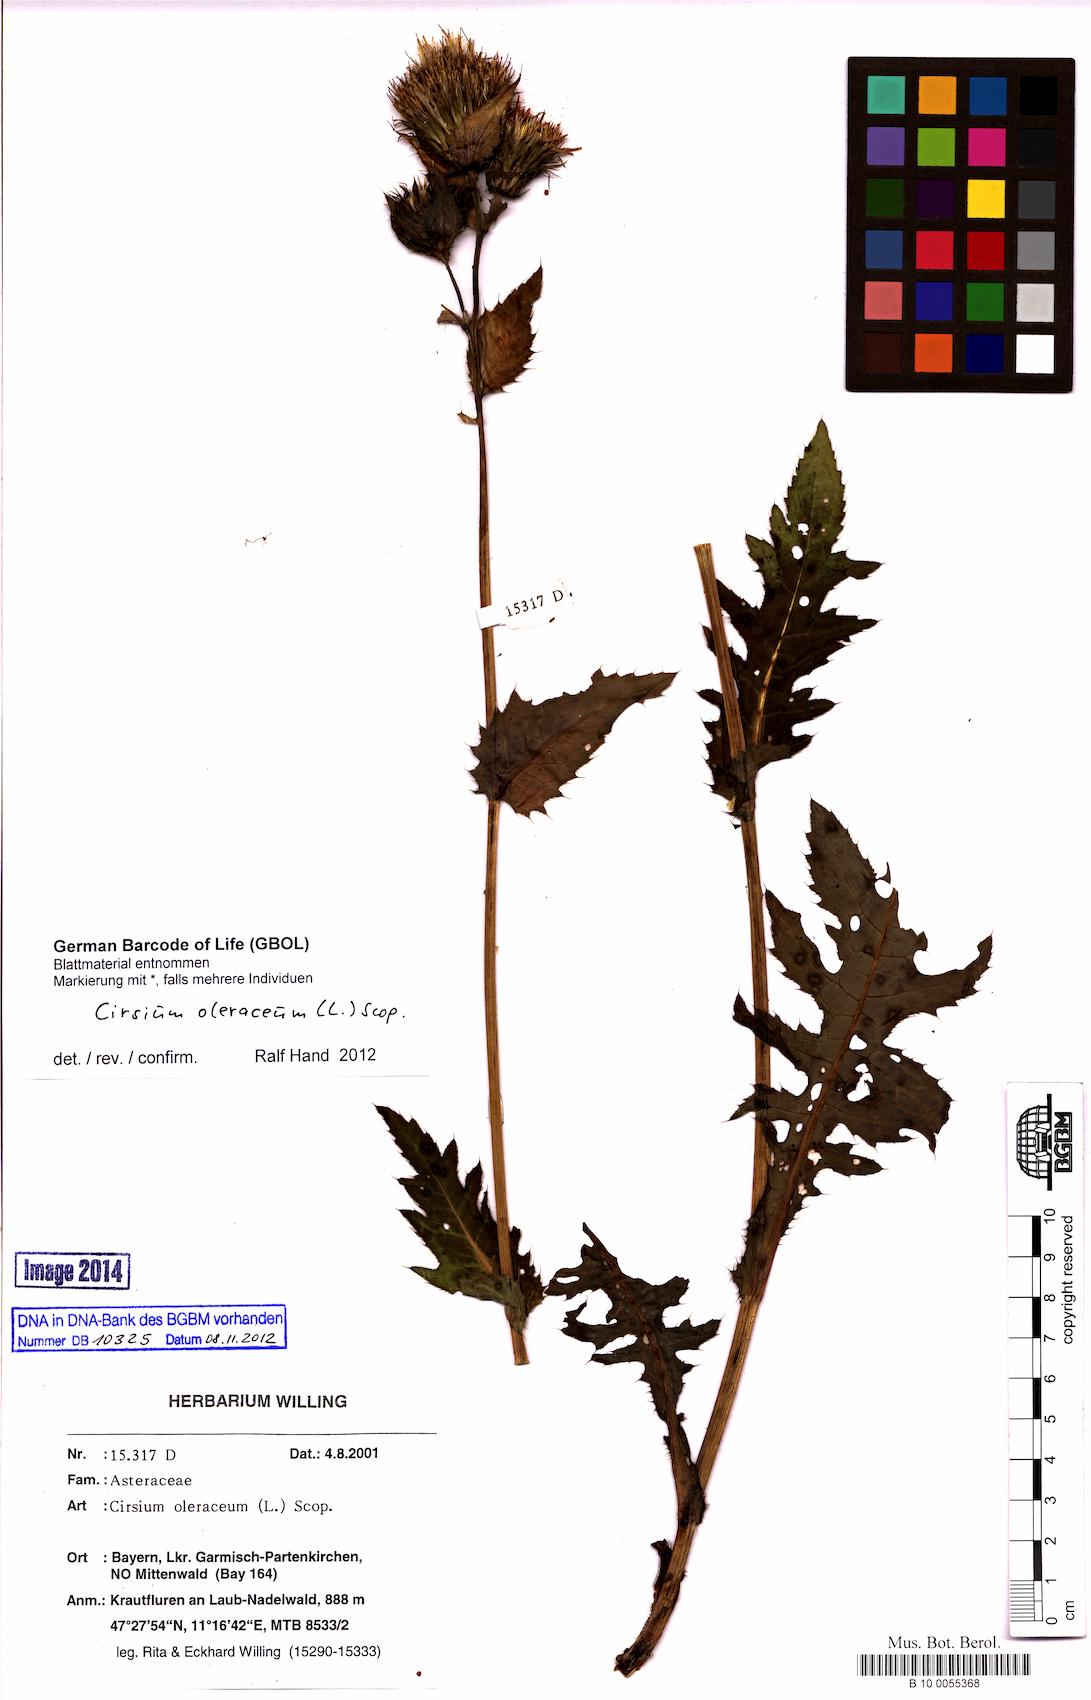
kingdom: Plantae
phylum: Tracheophyta
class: Magnoliopsida
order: Asterales
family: Asteraceae
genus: Cirsium
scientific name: Cirsium oleraceum
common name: Cabbage thistle
